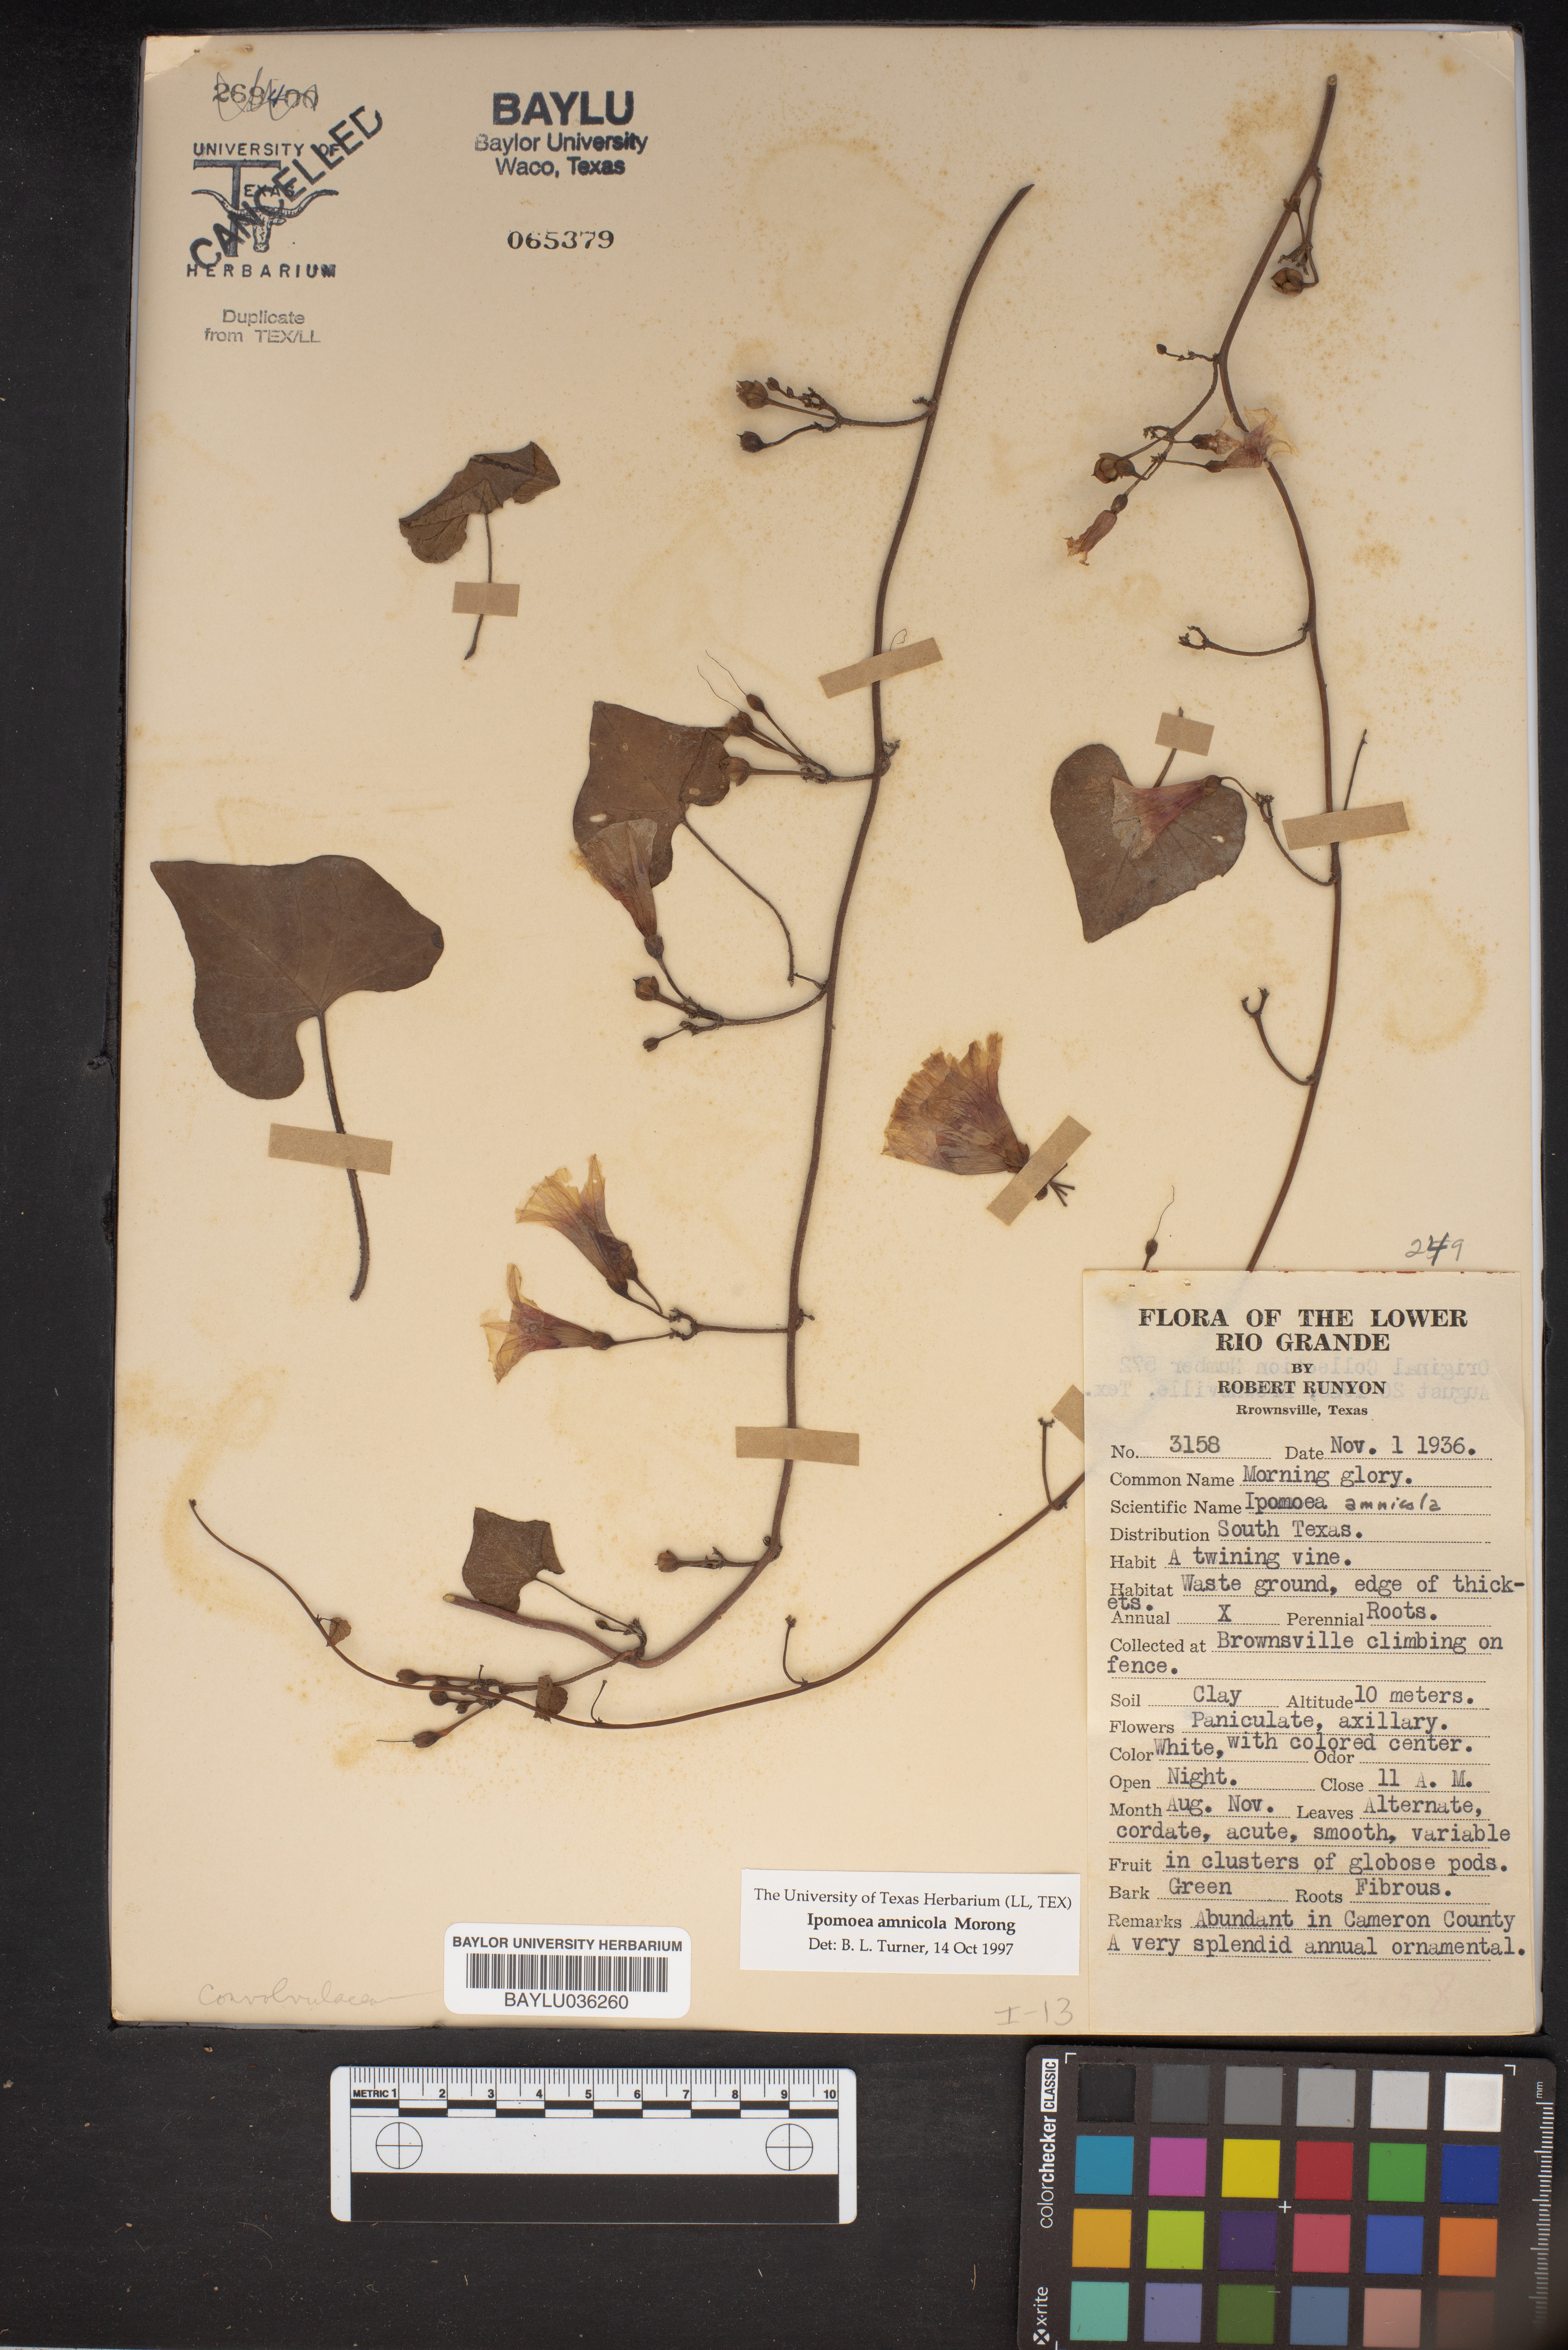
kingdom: Plantae
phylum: Tracheophyta
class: Magnoliopsida
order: Solanales
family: Convolvulaceae
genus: Ipomoea
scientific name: Ipomoea amnicola
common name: Redcenter morning-glory
